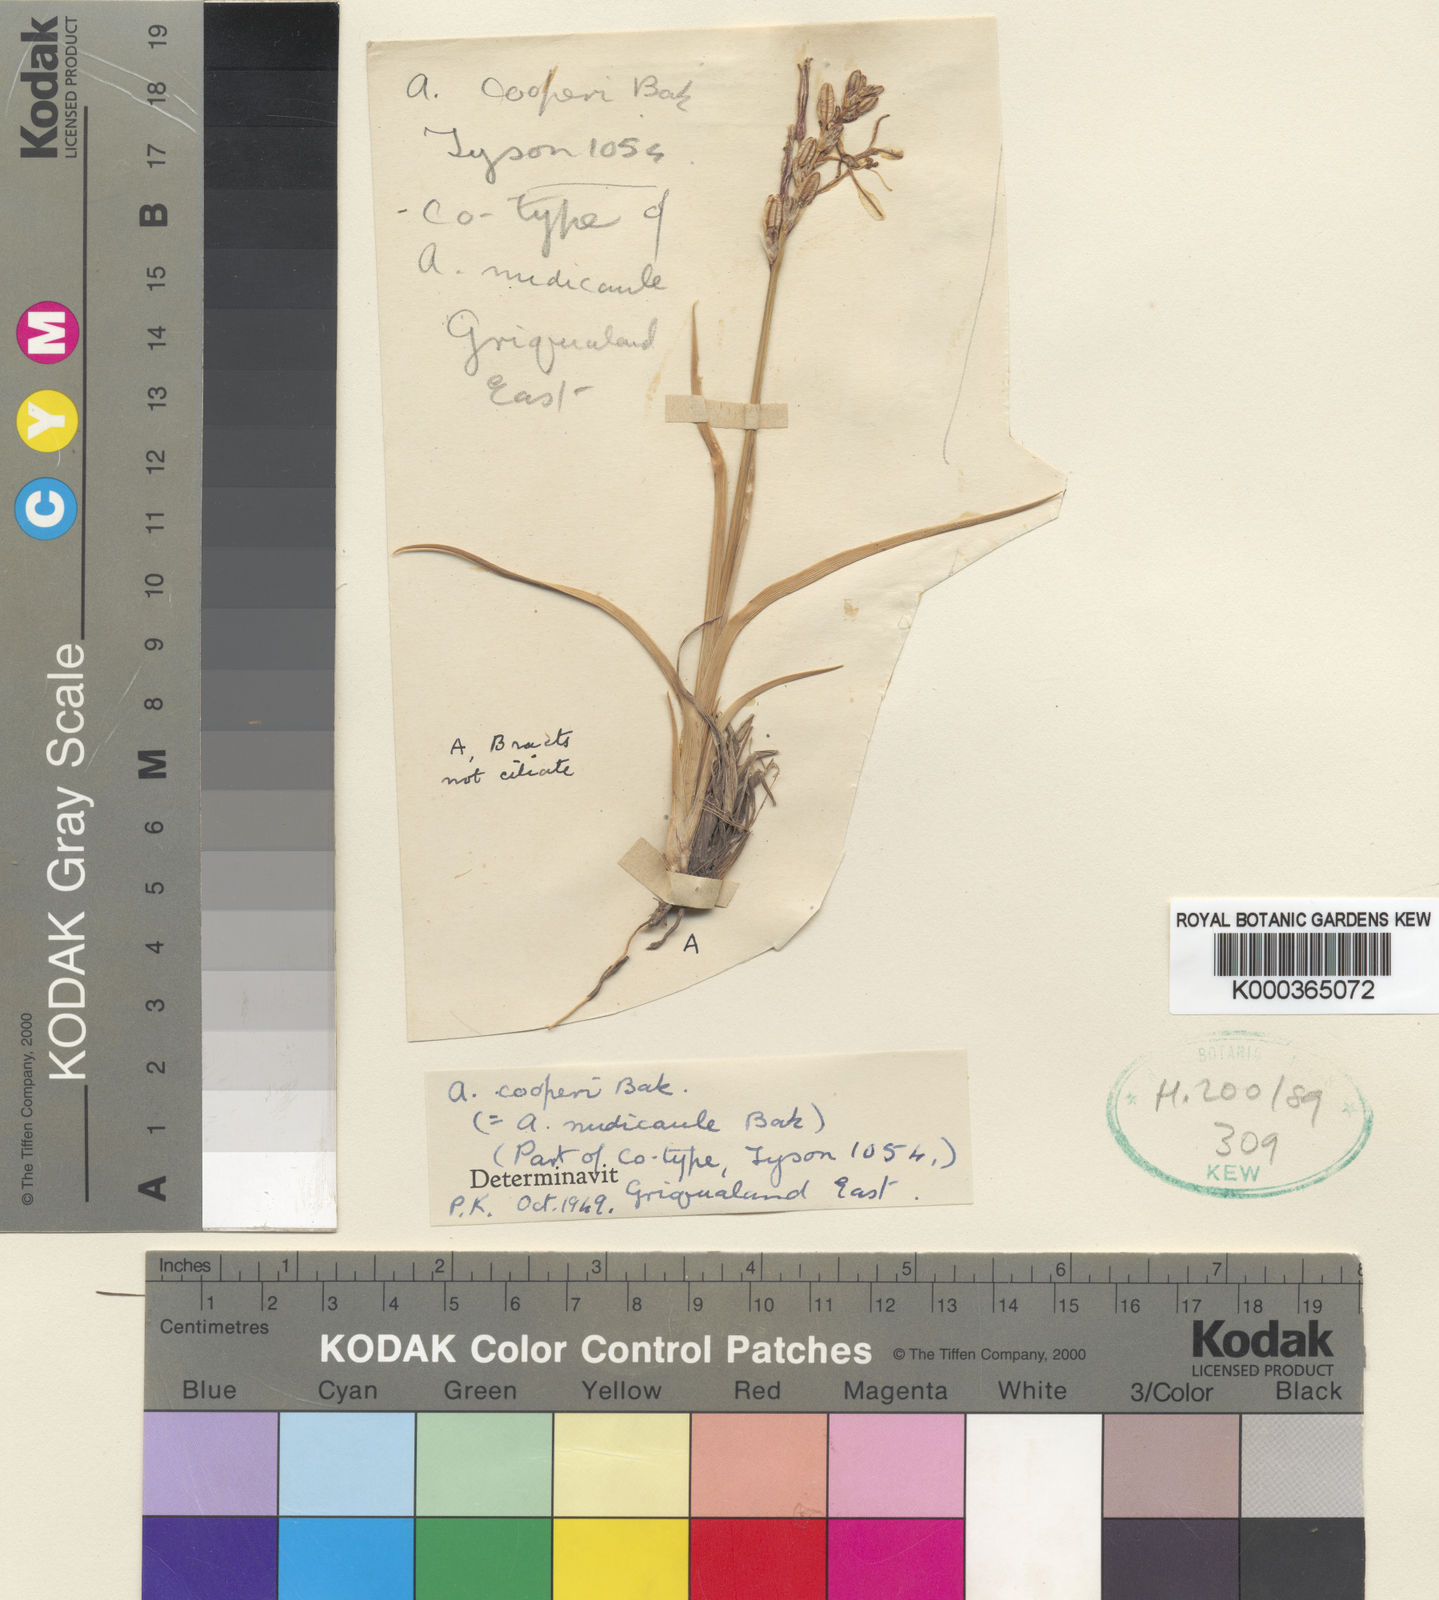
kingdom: Plantae
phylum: Tracheophyta
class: Liliopsida
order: Asparagales
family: Asparagaceae
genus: Chlorophytum
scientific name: Chlorophytum cooperi
